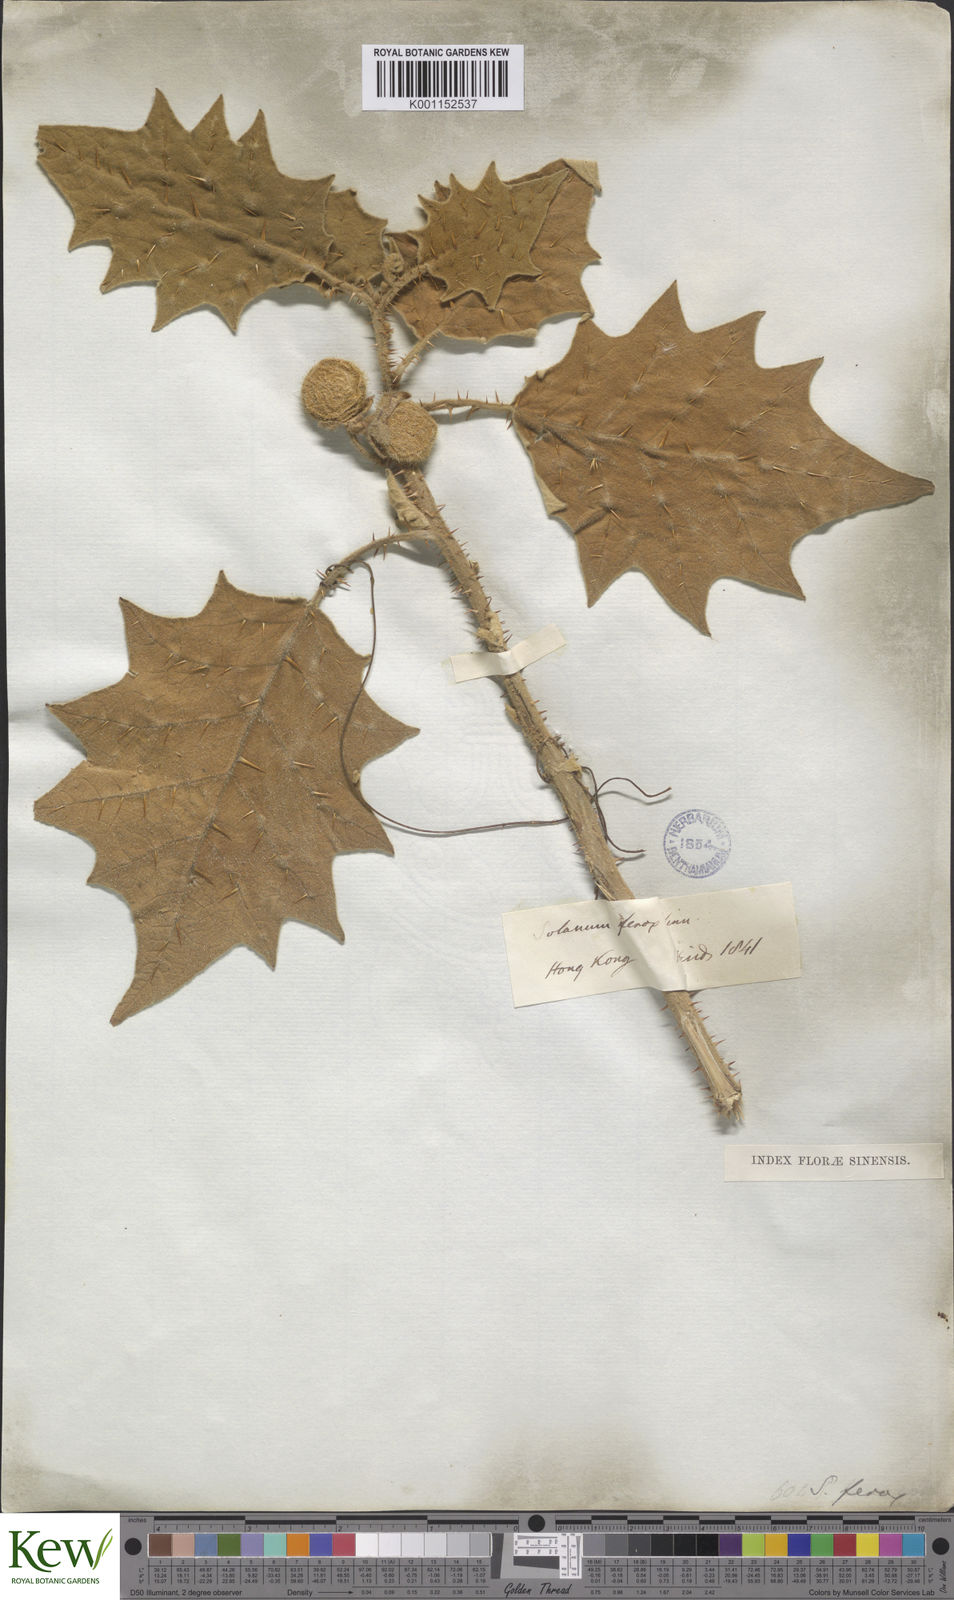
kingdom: Plantae
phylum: Tracheophyta
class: Magnoliopsida
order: Solanales
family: Solanaceae
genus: Solanum
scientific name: Solanum lasiocarpum
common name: Indian nightshade
